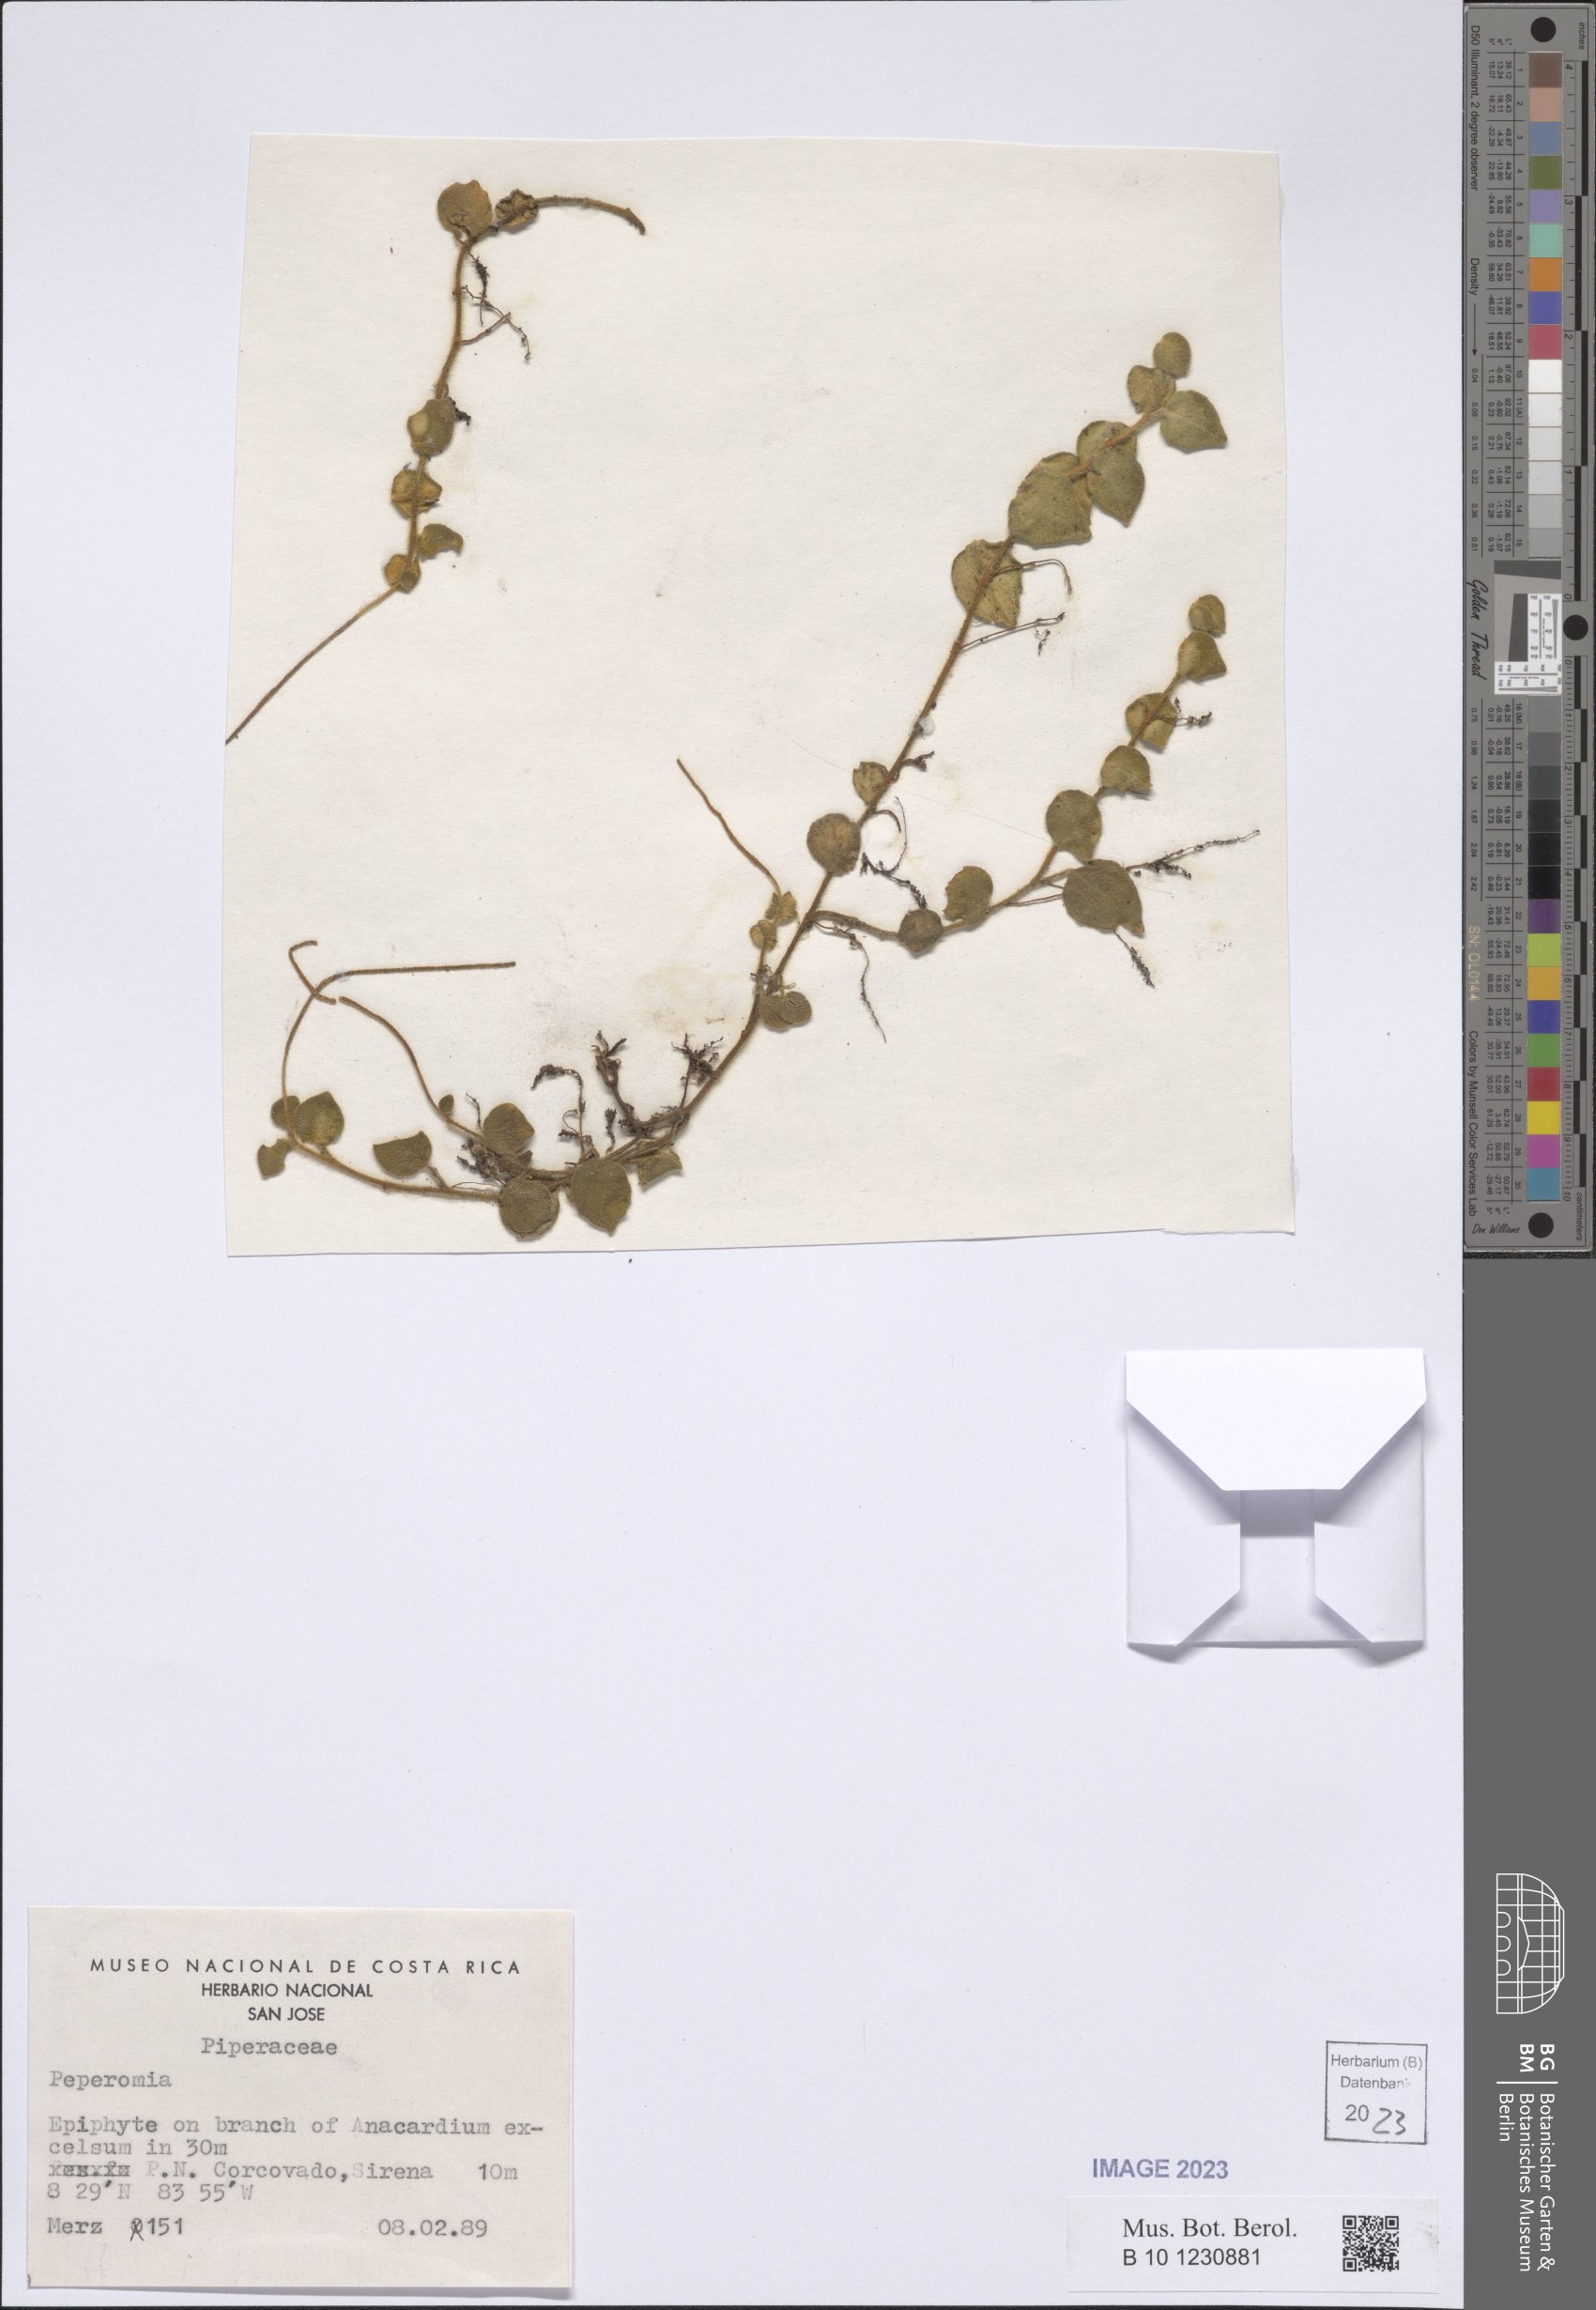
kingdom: Plantae
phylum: Tracheophyta
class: Magnoliopsida
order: Piperales
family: Piperaceae
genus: Peperomia
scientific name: Peperomia
